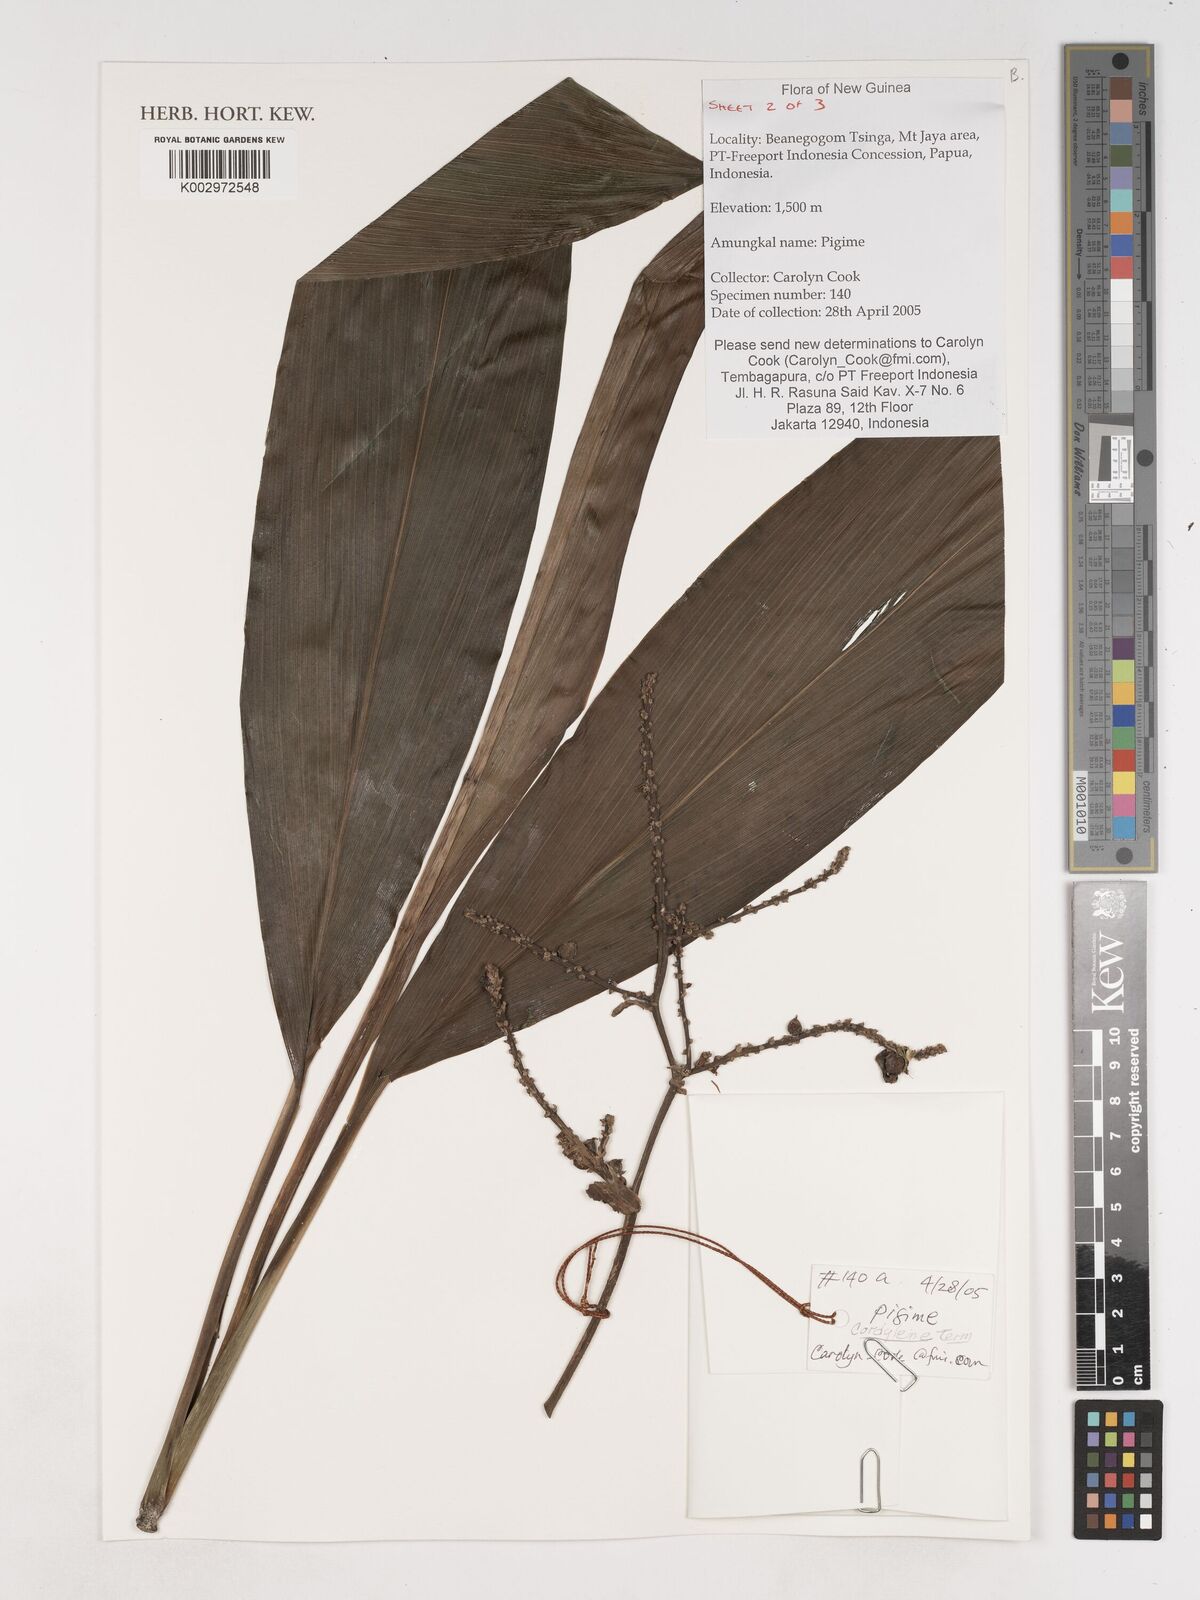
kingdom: Plantae
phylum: Tracheophyta
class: Liliopsida
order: Asparagales
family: Asparagaceae
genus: Cordyline
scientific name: Cordyline
